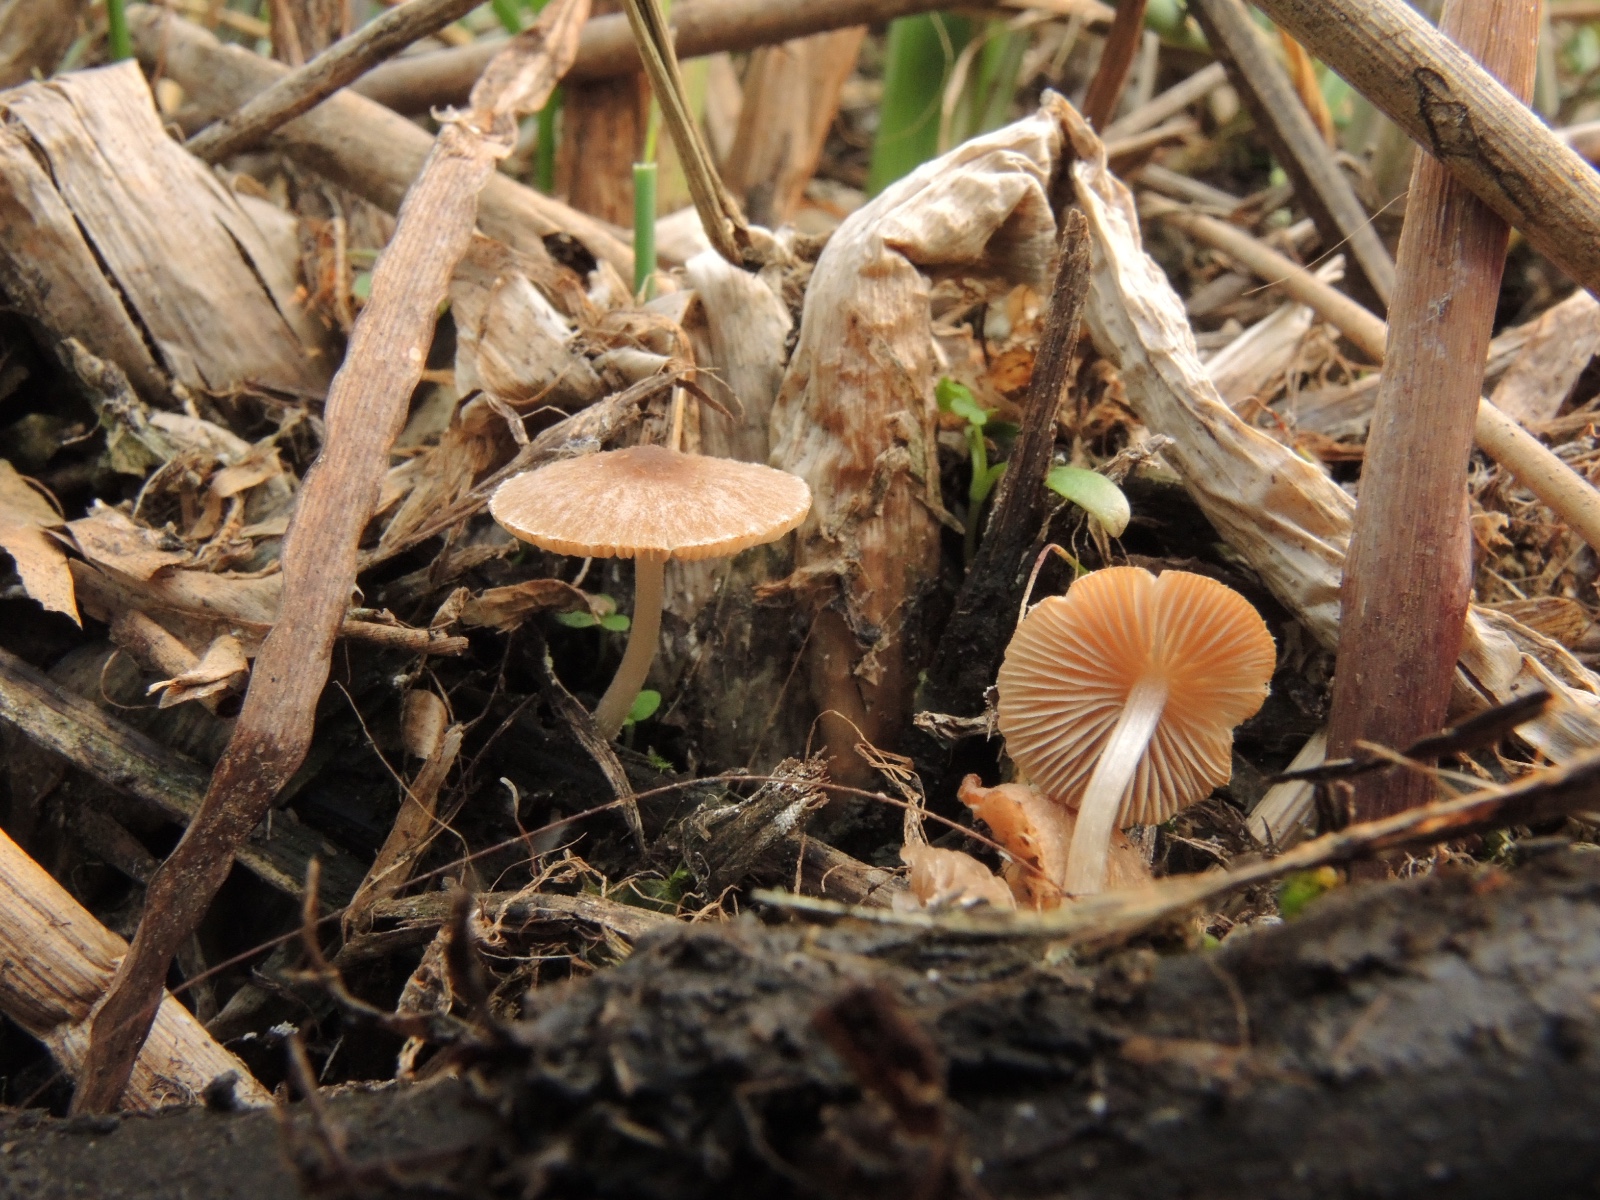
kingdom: Fungi
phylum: Basidiomycota
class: Agaricomycetes
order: Agaricales
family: Psathyrellaceae
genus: Candolleomyces
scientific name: Candolleomyces typhae
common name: dunhammer-mørkhat
